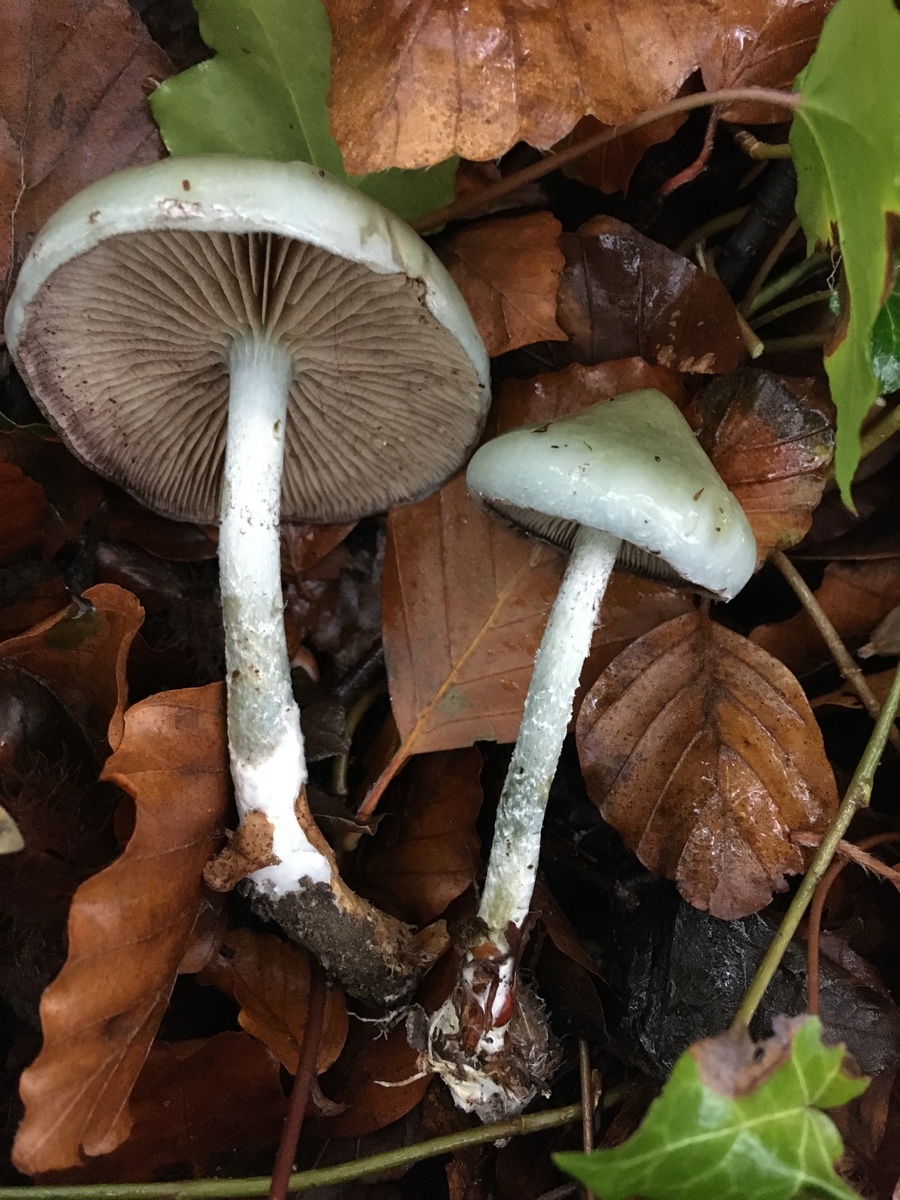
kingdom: Fungi
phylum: Basidiomycota
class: Agaricomycetes
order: Agaricales
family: Strophariaceae
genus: Stropharia
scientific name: Stropharia cyanea
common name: blågrøn bredblad
